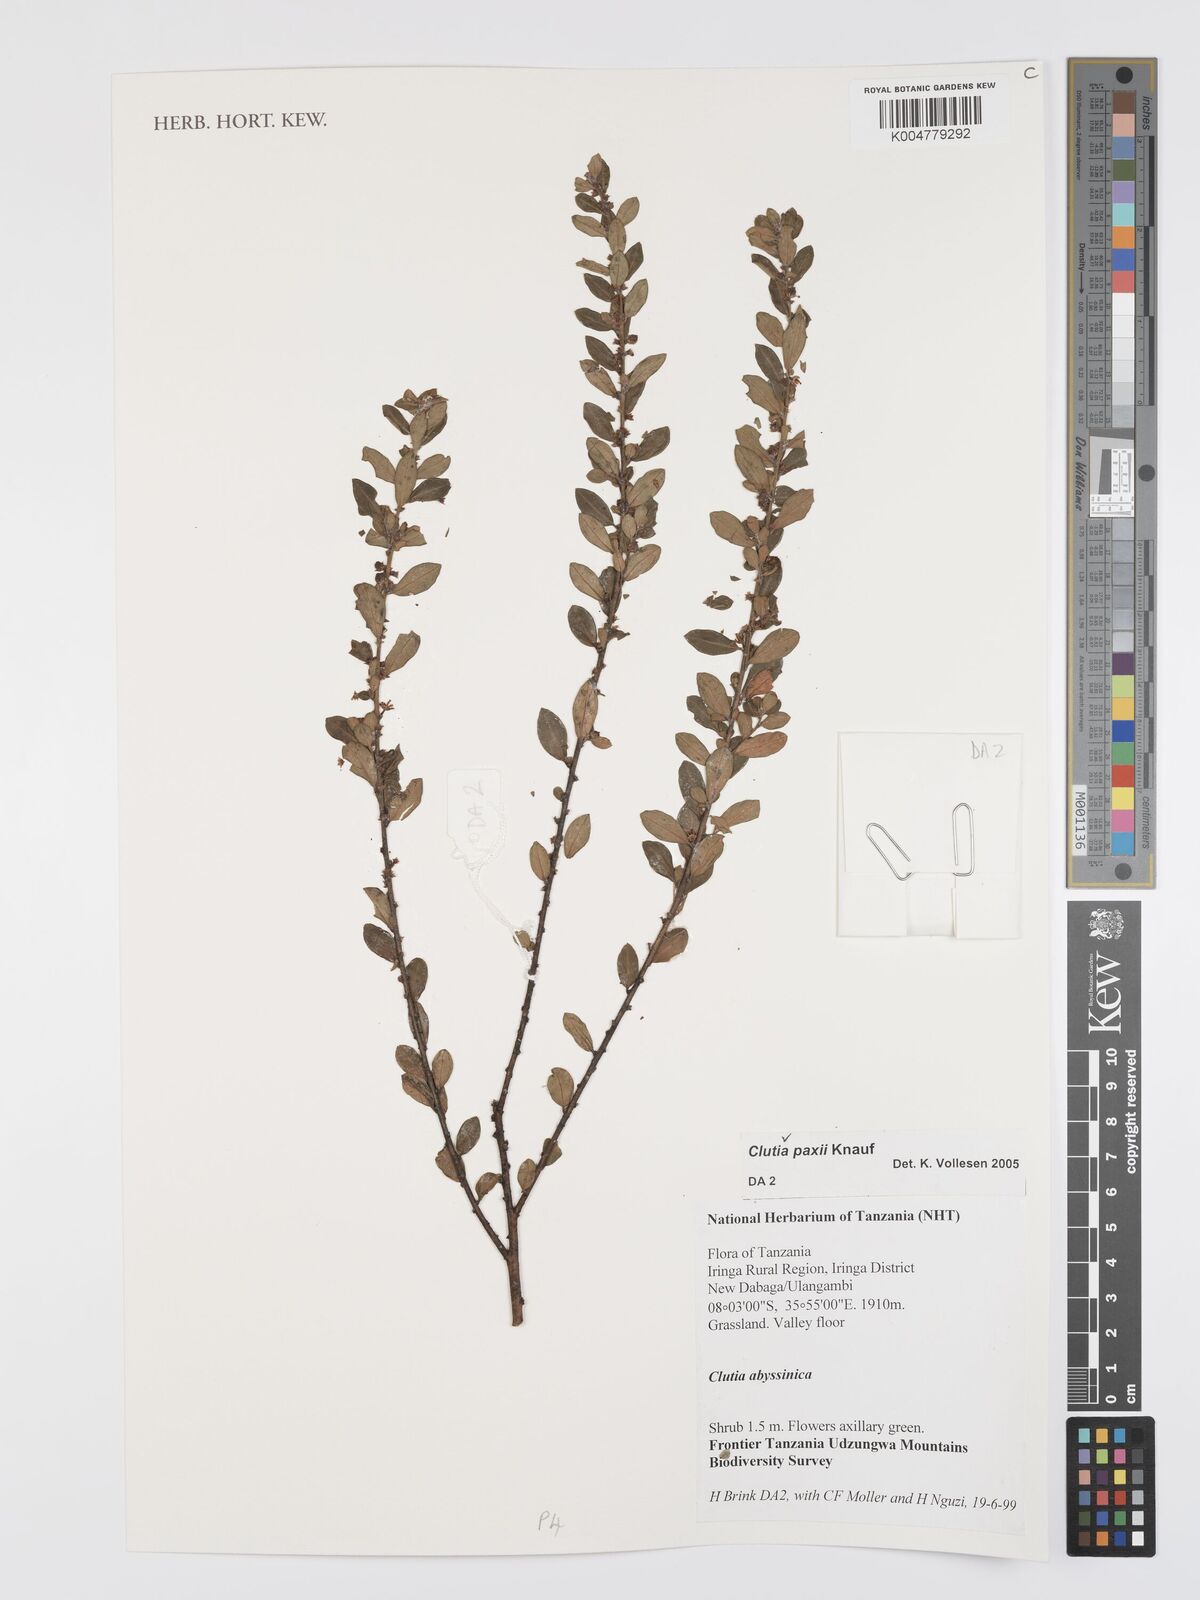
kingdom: Plantae
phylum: Tracheophyta
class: Magnoliopsida
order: Malpighiales
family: Peraceae
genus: Clutia
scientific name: Clutia paxii
